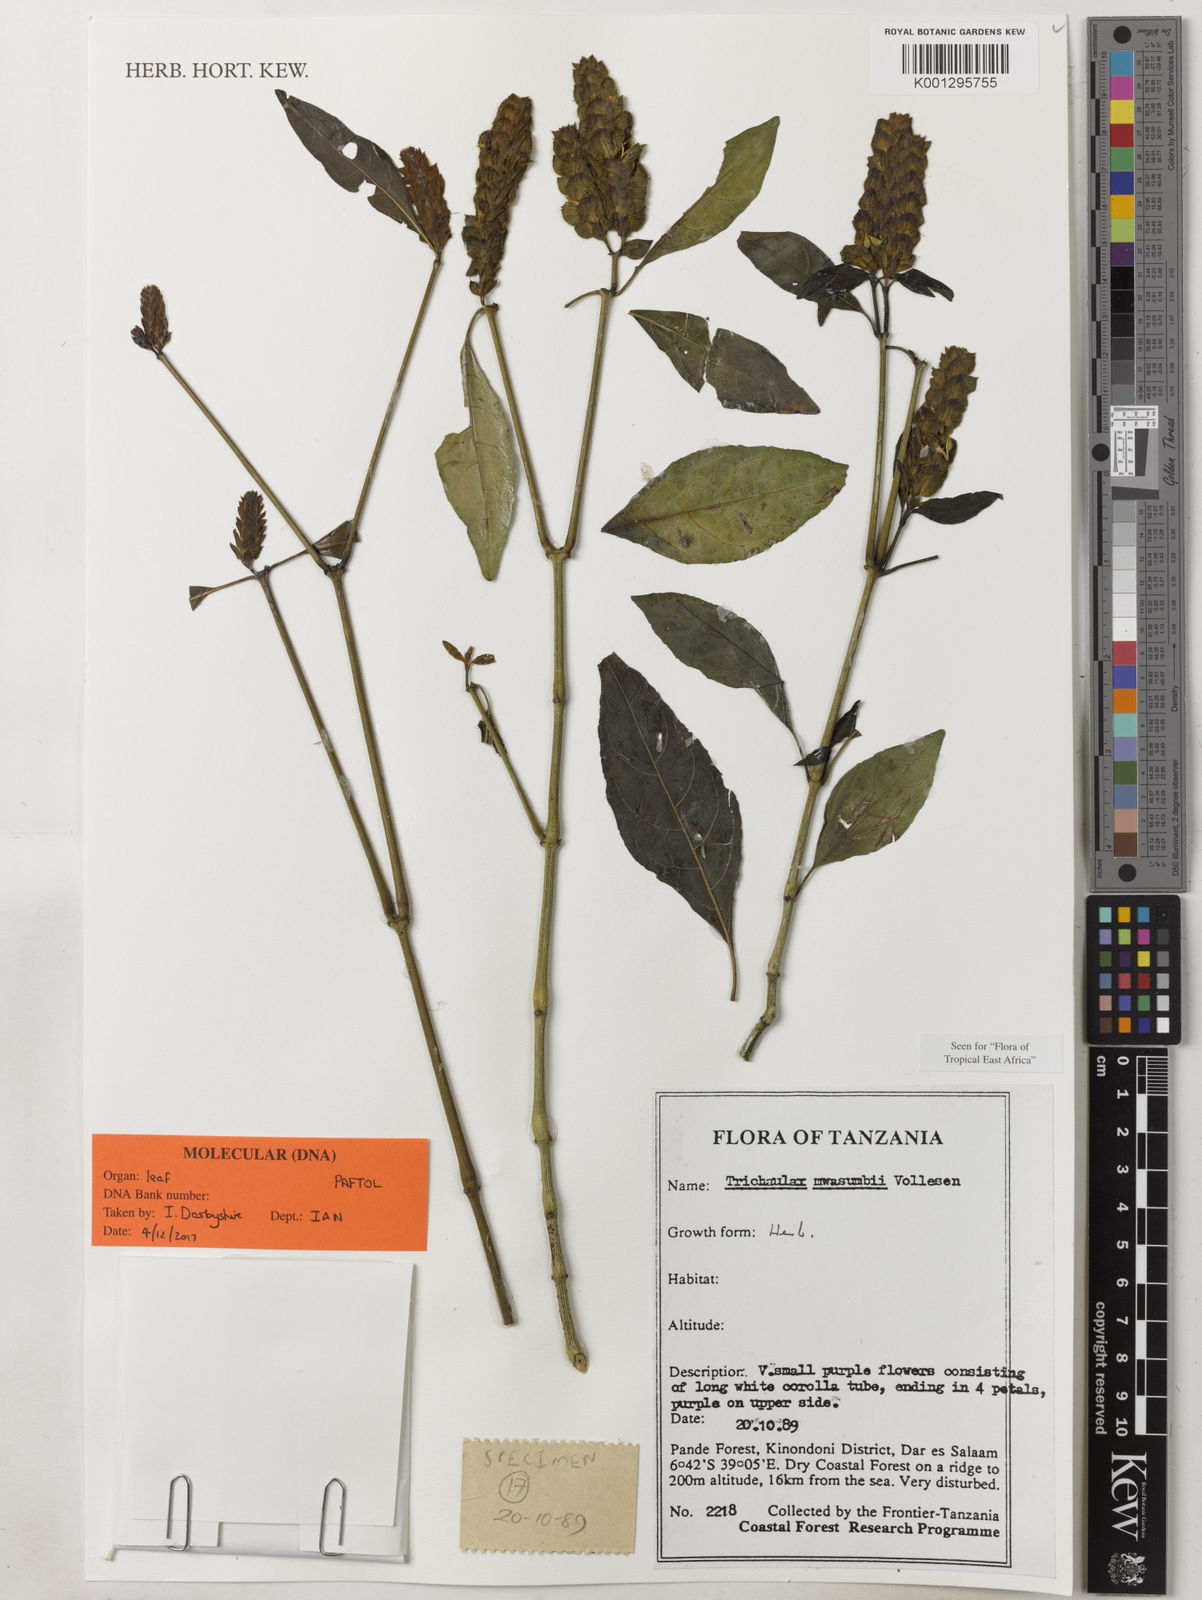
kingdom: Plantae
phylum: Tracheophyta
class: Magnoliopsida
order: Lamiales
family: Acanthaceae
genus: Trichaulax
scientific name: Trichaulax mwasumbii
